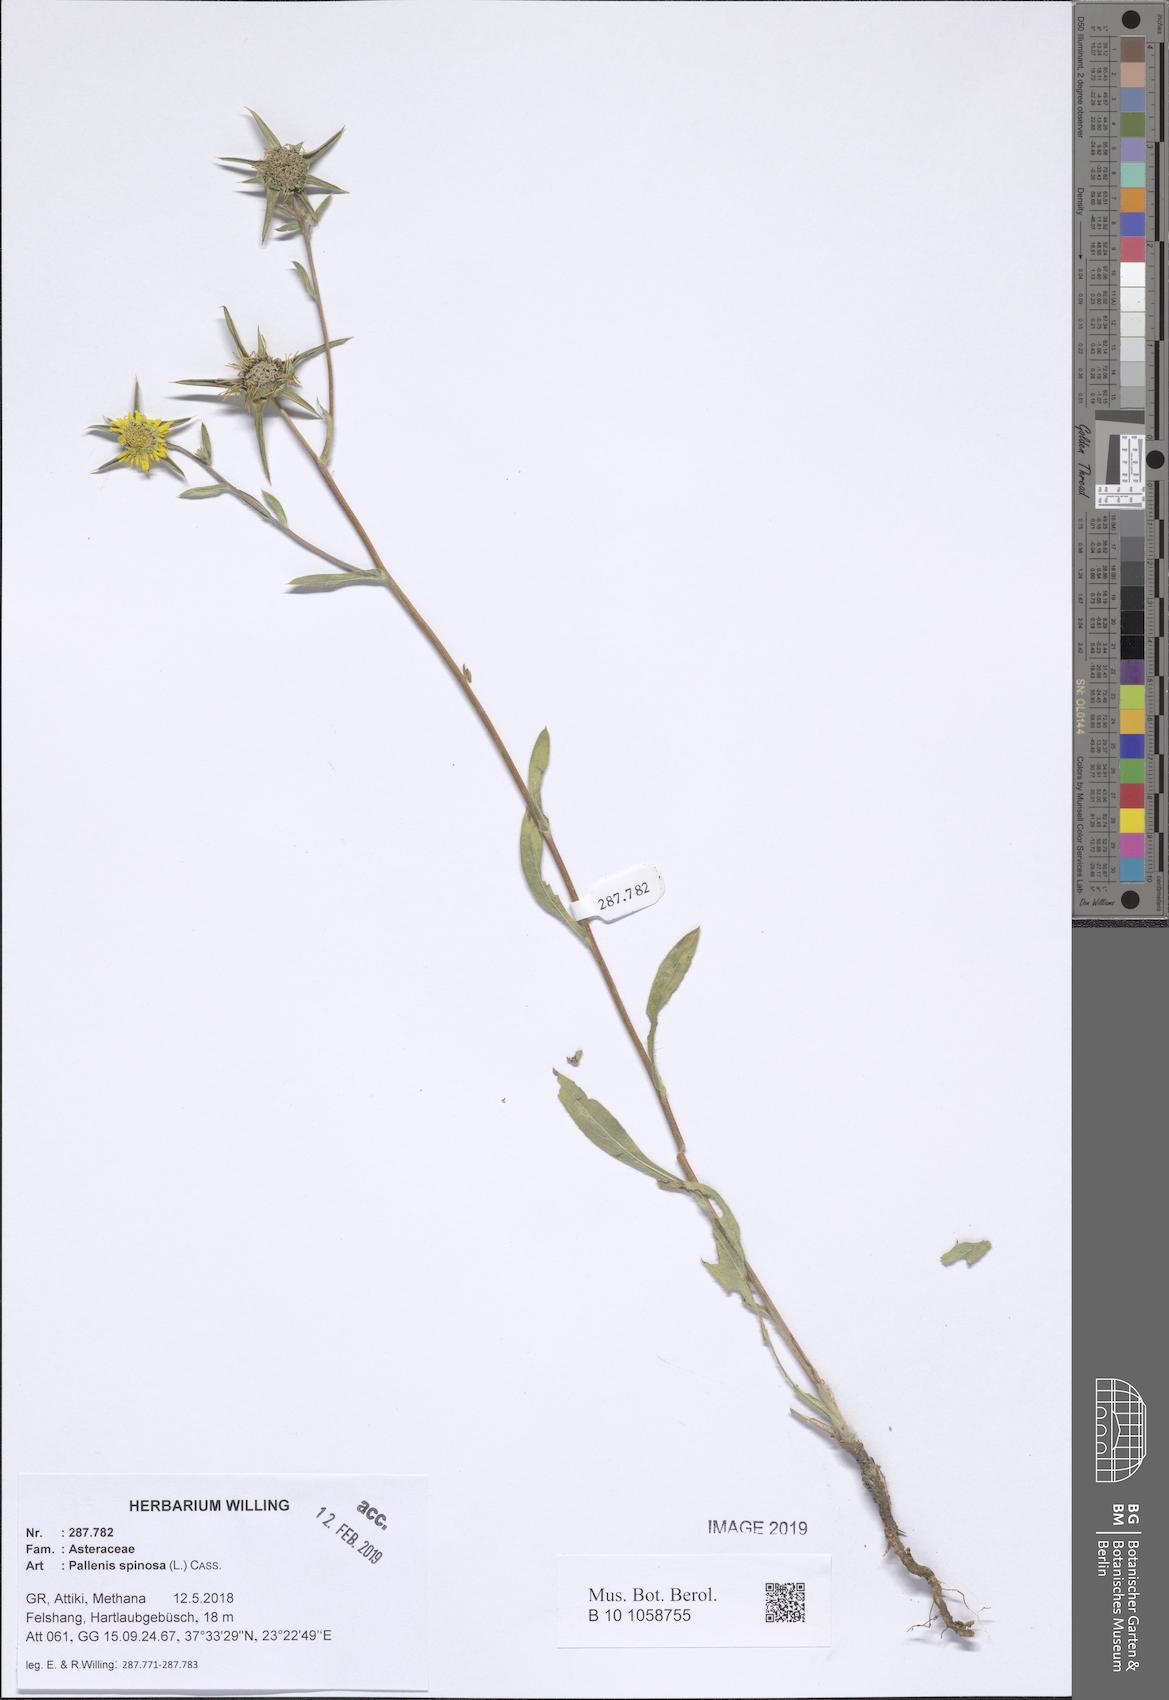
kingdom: Plantae
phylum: Tracheophyta
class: Magnoliopsida
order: Asterales
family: Asteraceae
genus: Pallenis
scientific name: Pallenis spinosa
